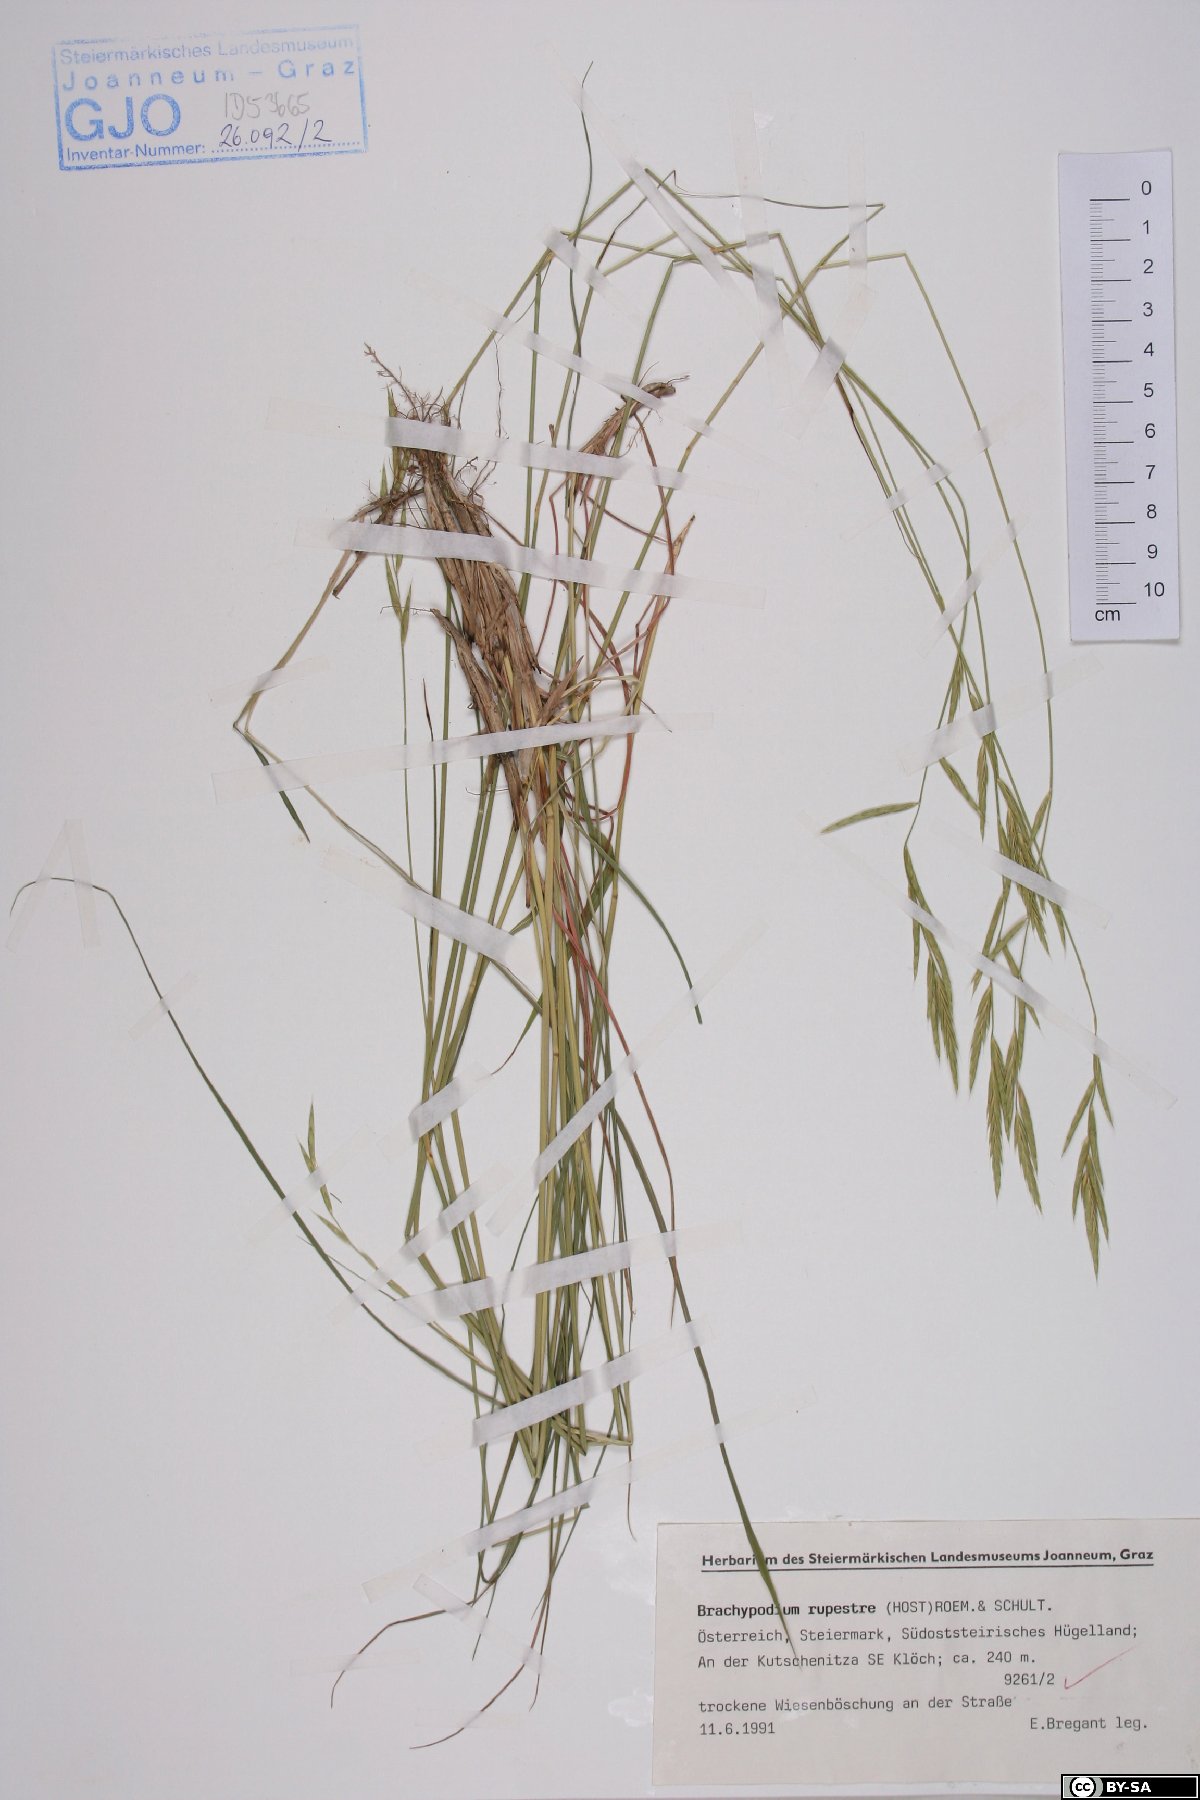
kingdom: Plantae
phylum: Tracheophyta
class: Liliopsida
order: Poales
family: Poaceae
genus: Brachypodium
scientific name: Brachypodium pinnatum
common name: Tor grass
